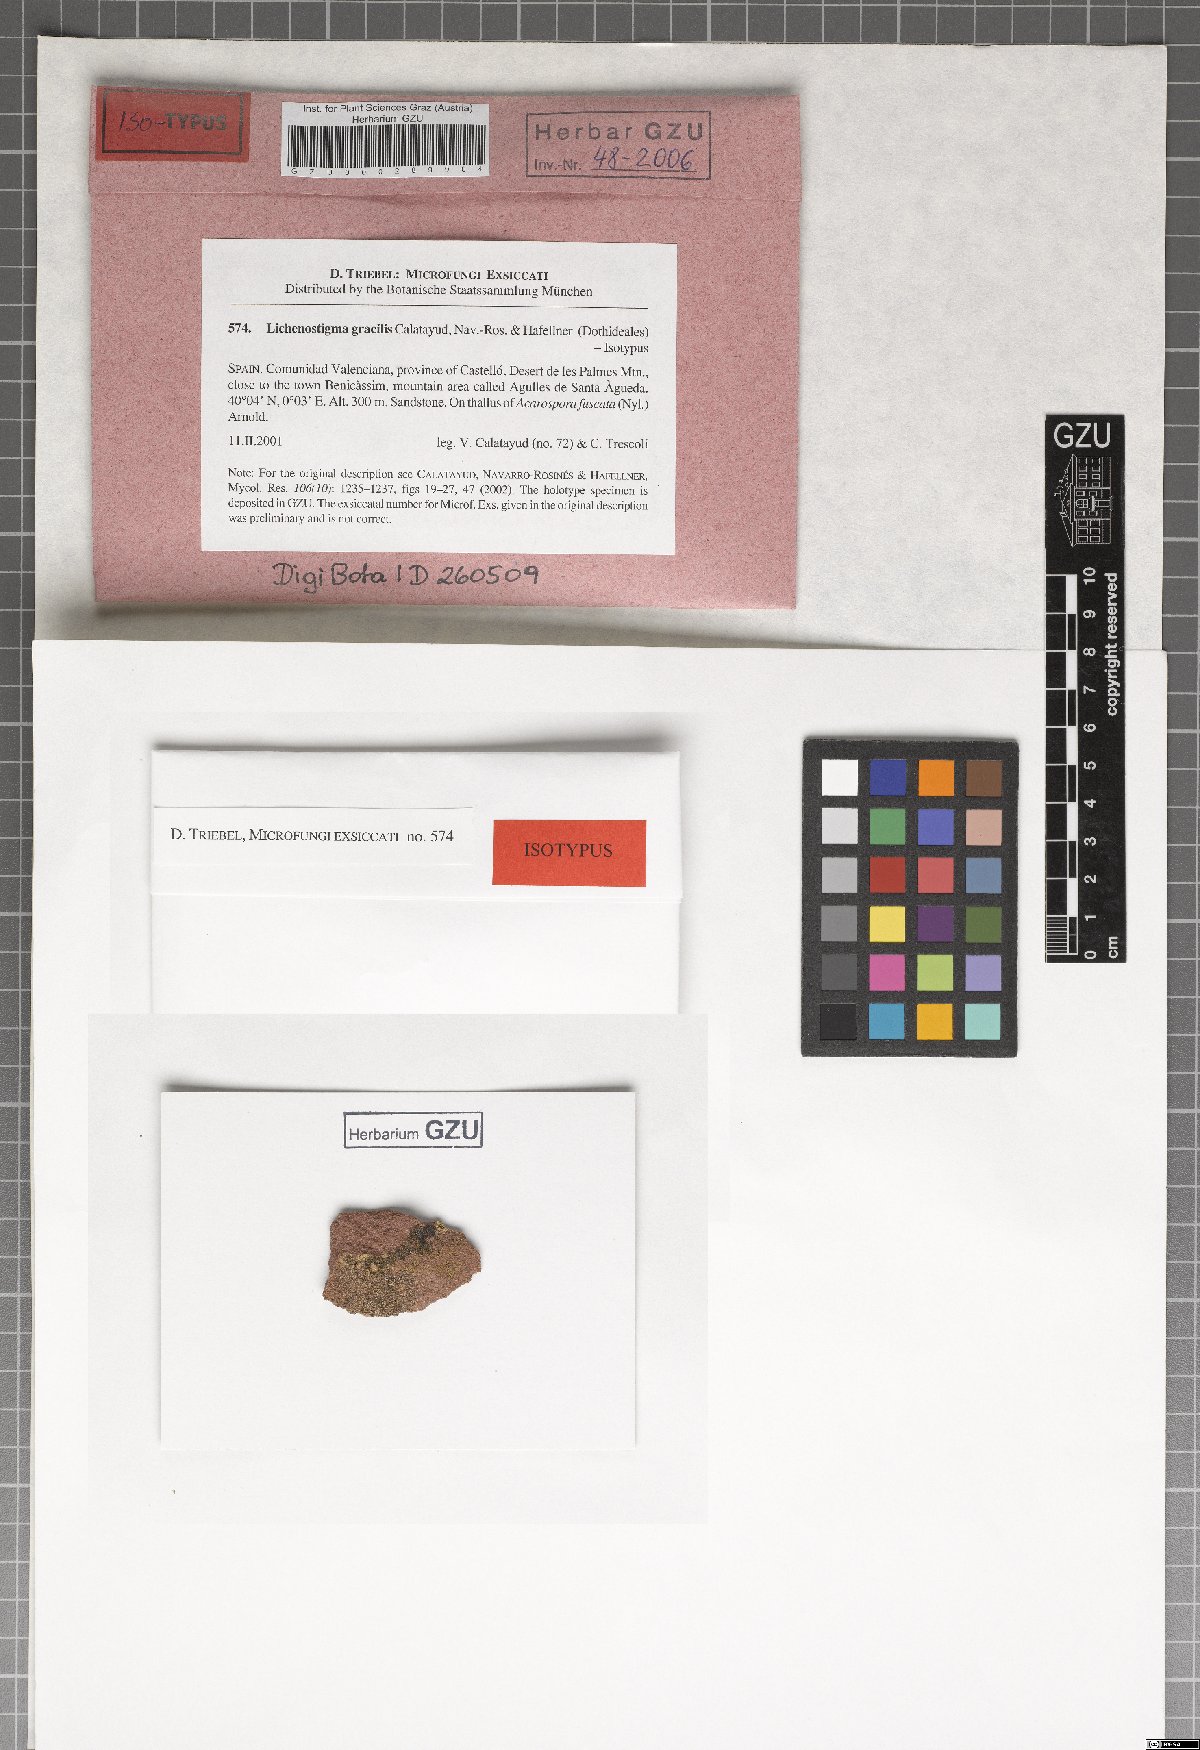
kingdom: Fungi
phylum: Ascomycota
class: Arthoniomycetes
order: Lichenostigmatales
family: Phaeococcomycetaceae
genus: Lichenostigma
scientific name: Lichenostigma gracile
